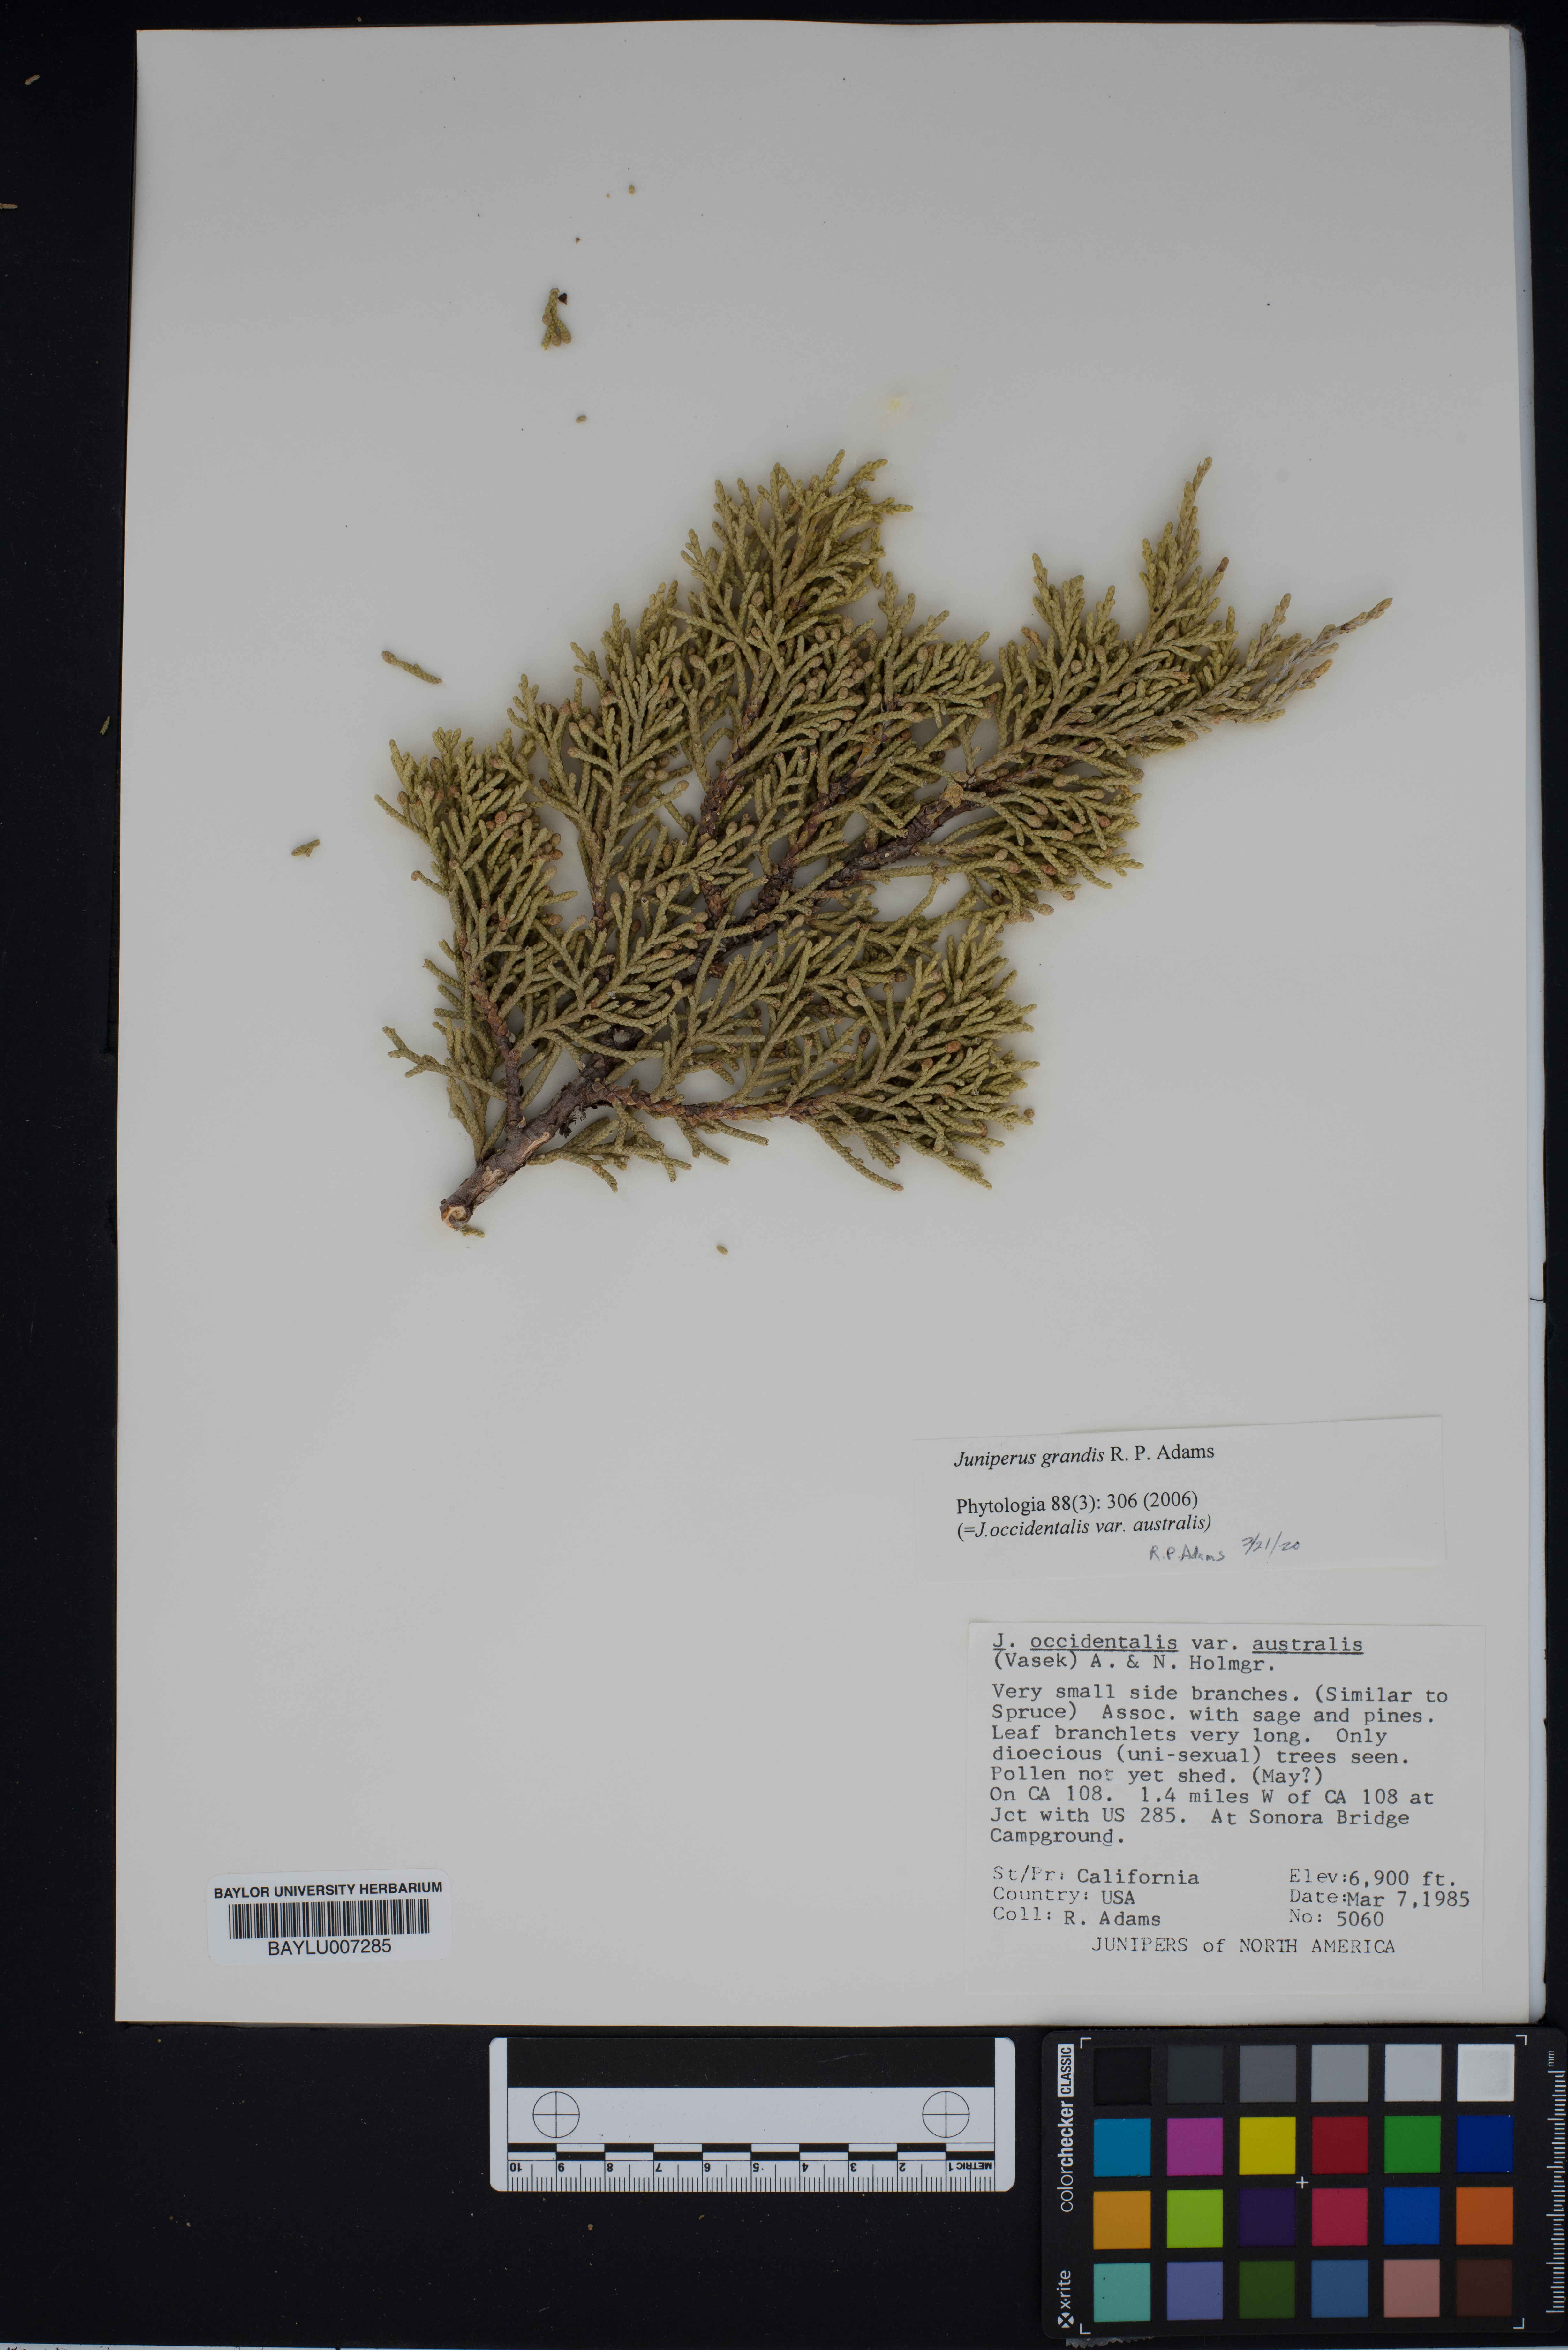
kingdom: Plantae
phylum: Tracheophyta
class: Pinopsida
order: Pinales
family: Cupressaceae
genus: Juniperus
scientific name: Juniperus occidentalis
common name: Western juniper
